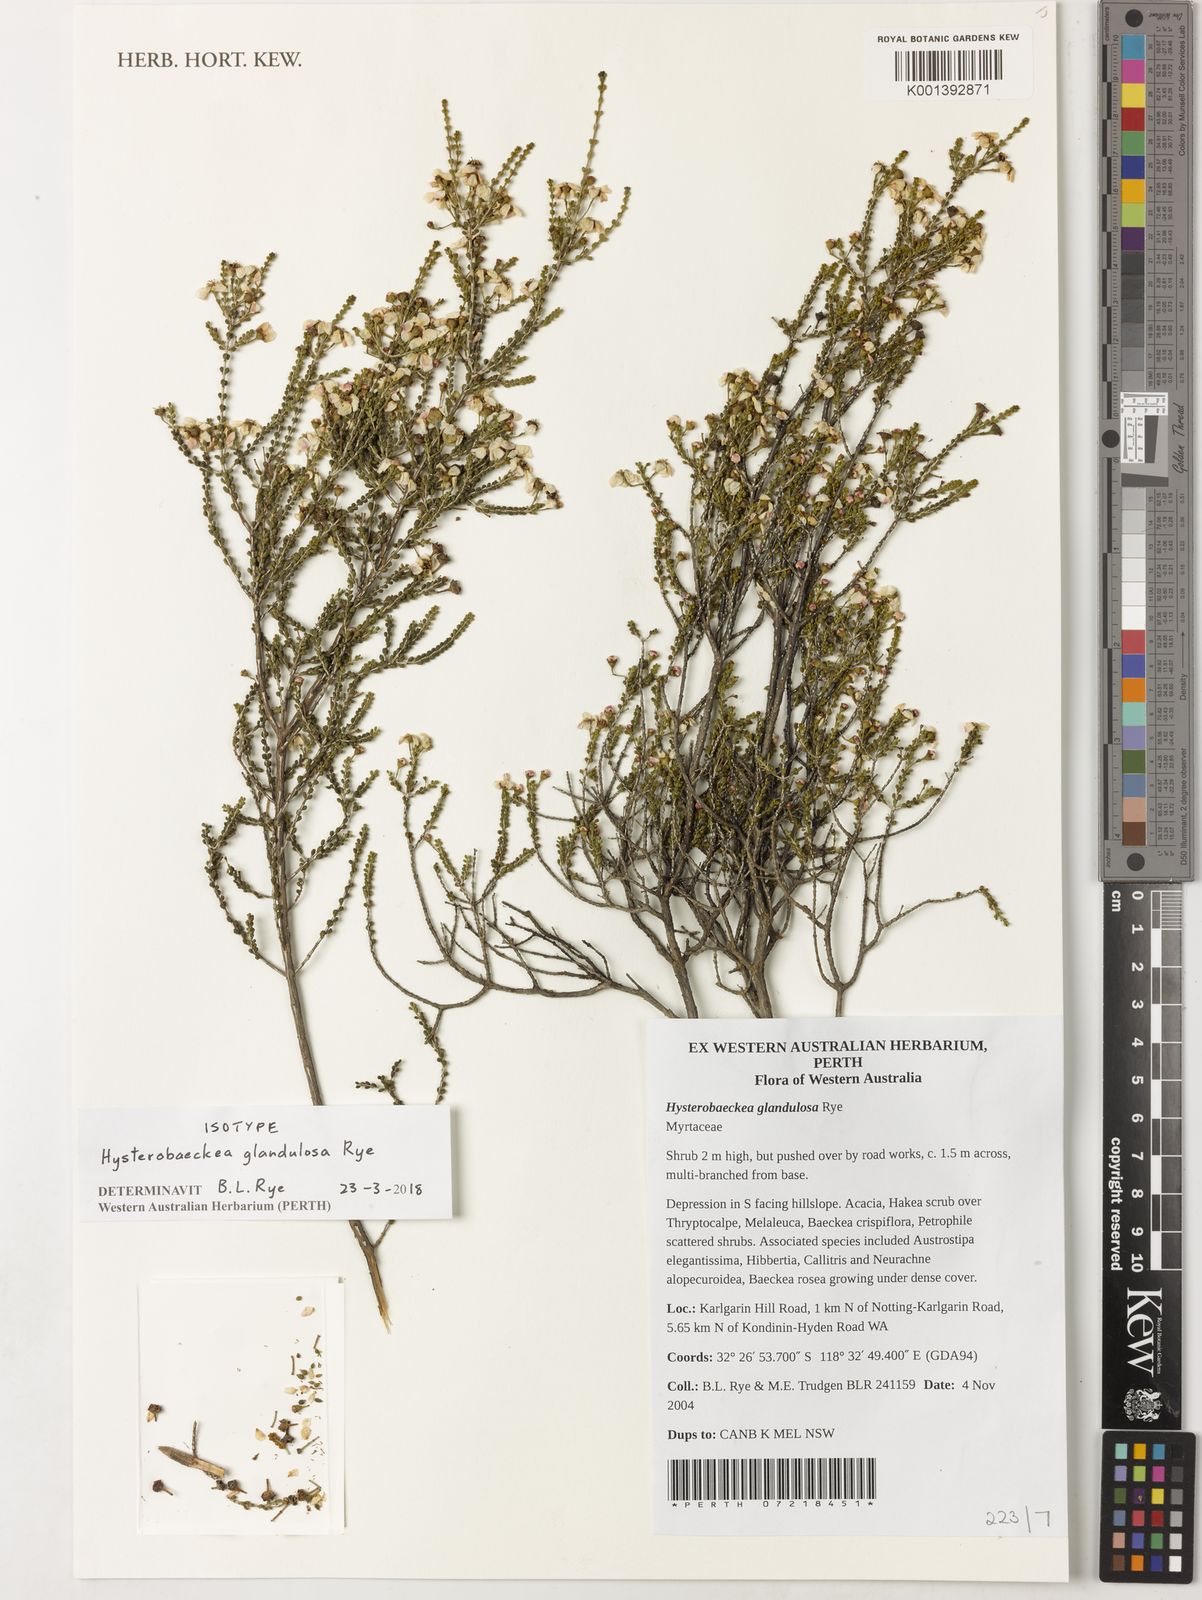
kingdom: Plantae
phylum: Tracheophyta
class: Magnoliopsida
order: Myrtales
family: Myrtaceae
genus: Hysterobaeckea
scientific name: Hysterobaeckea glandulosa
